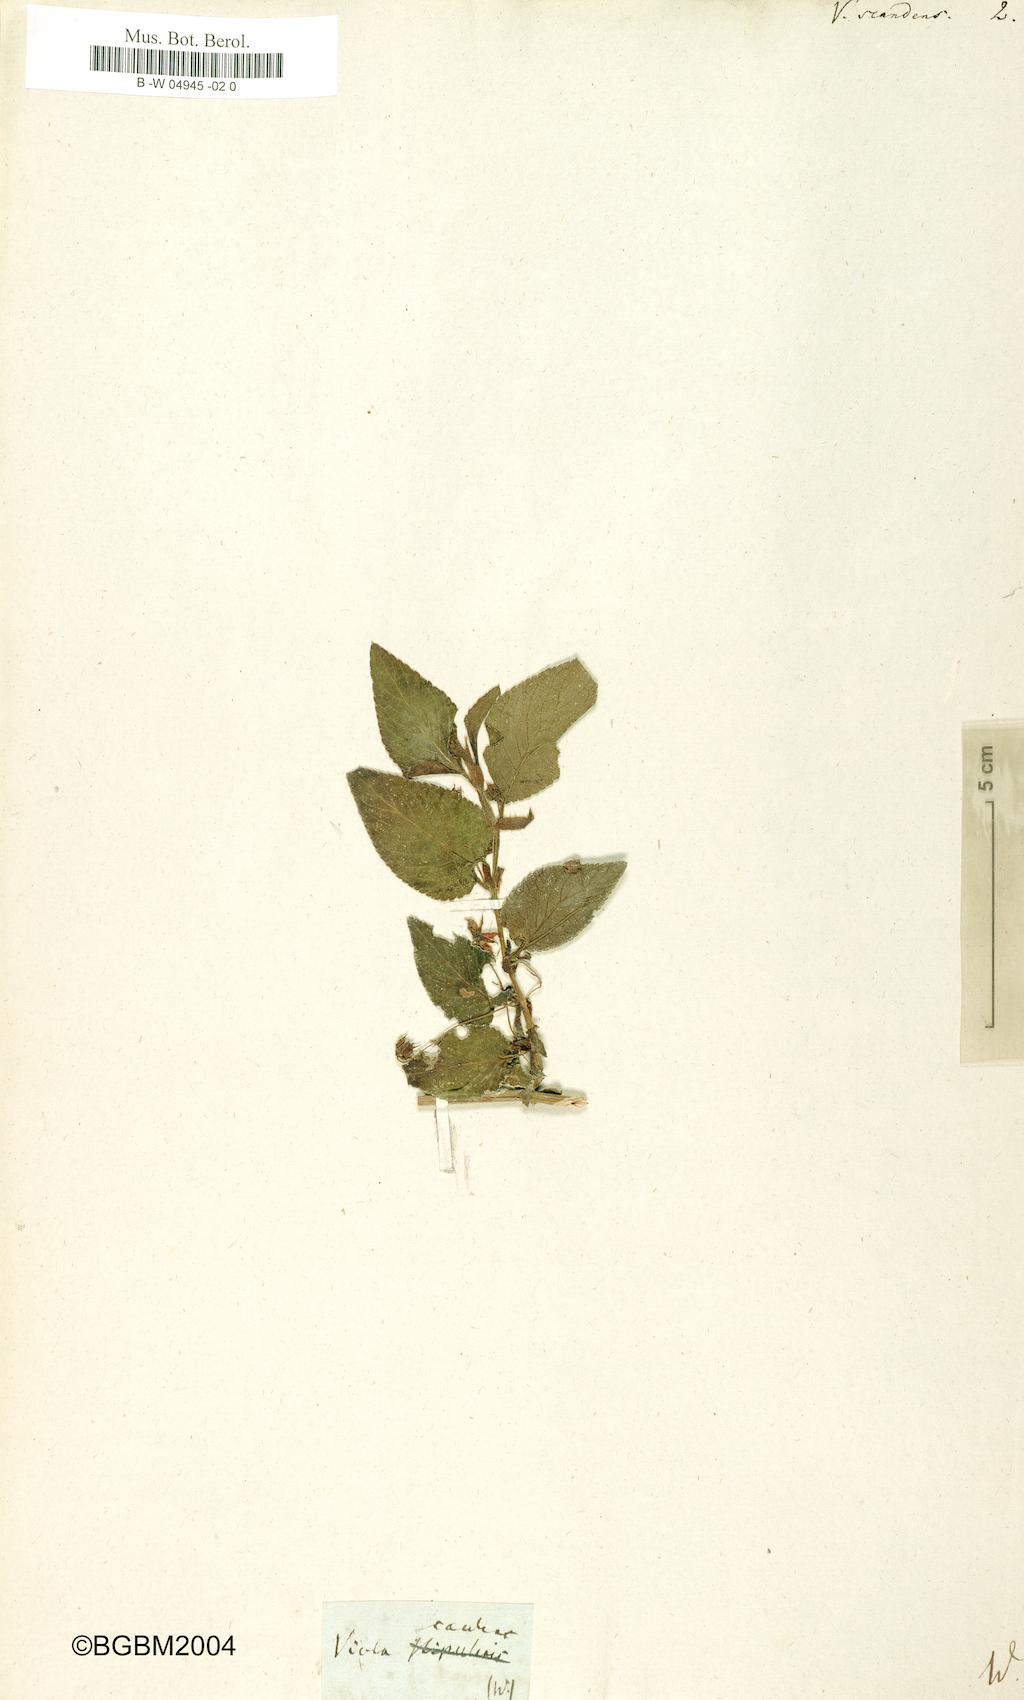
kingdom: Plantae
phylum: Tracheophyta
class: Magnoliopsida
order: Malpighiales
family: Violaceae
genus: Viola
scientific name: Viola scandens
